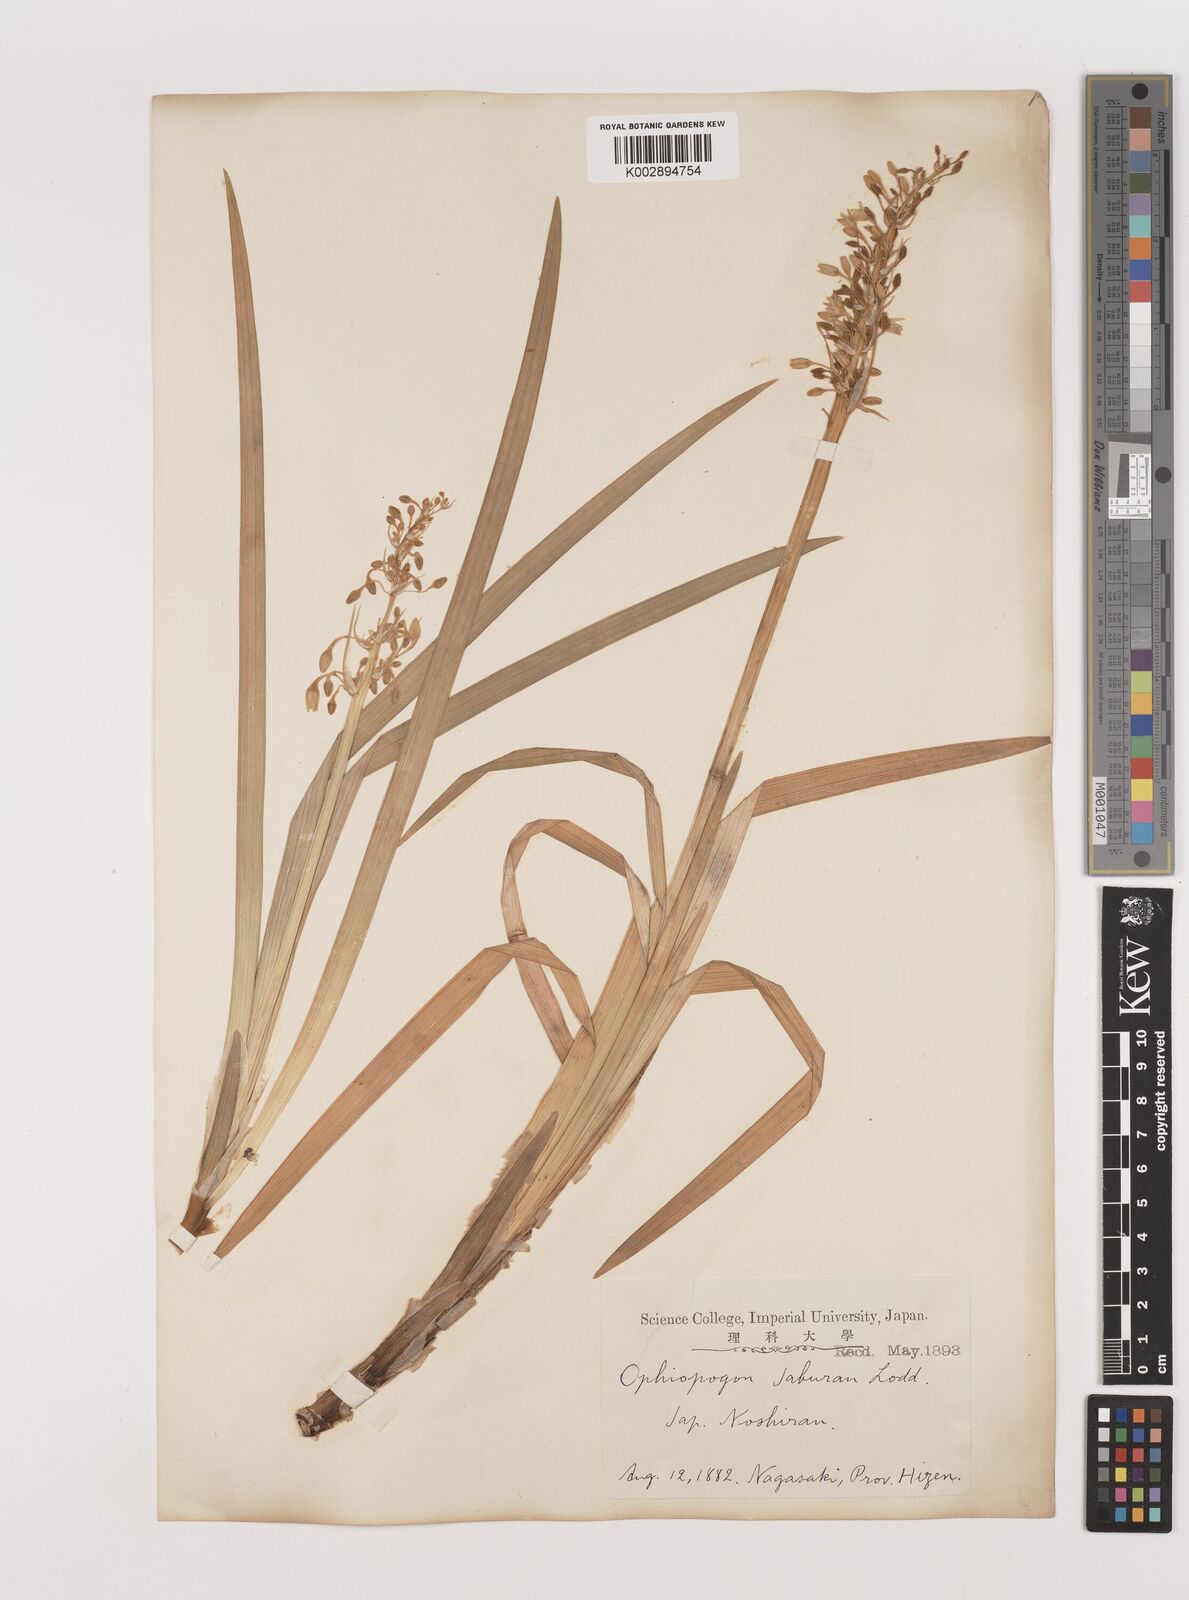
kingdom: Plantae
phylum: Tracheophyta
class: Liliopsida
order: Asparagales
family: Asparagaceae
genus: Ophiopogon
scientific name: Ophiopogon jaburan
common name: Lilyturf
